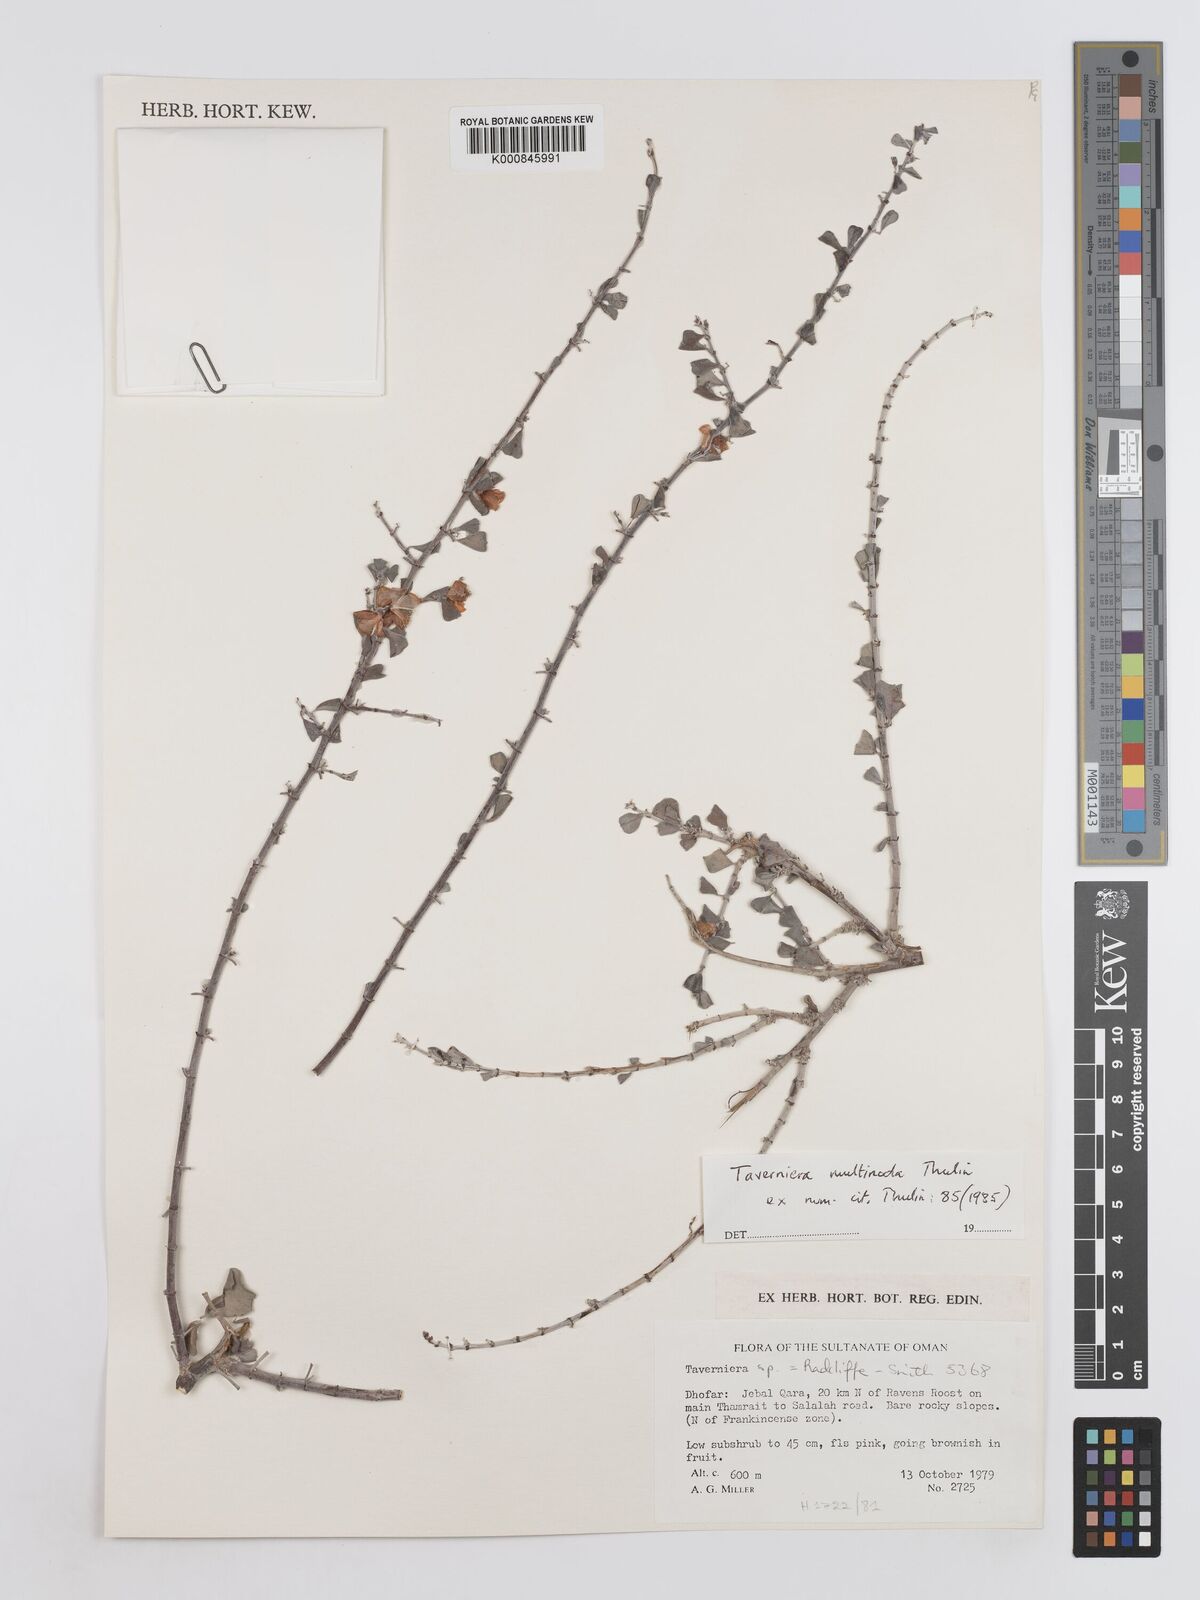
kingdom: Plantae
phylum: Tracheophyta
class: Magnoliopsida
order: Fabales
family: Fabaceae
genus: Taverniera
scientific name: Taverniera multinoda
